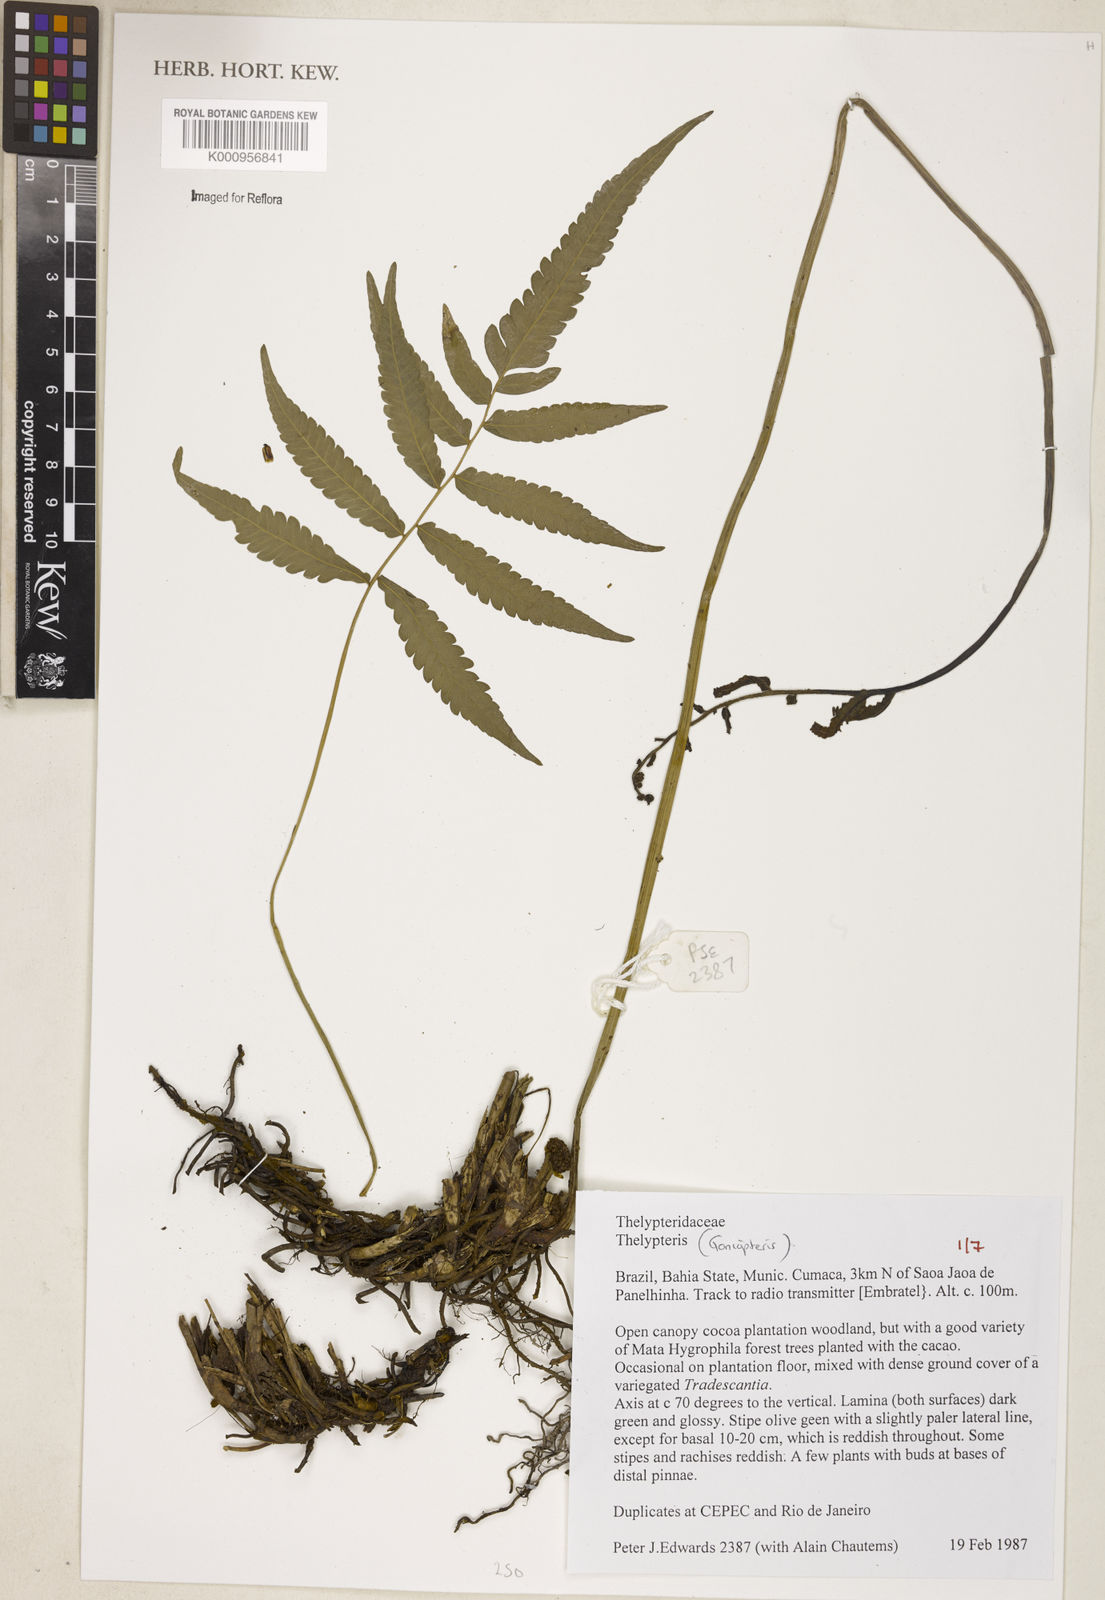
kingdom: Plantae
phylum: Tracheophyta
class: Polypodiopsida
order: Polypodiales
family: Thelypteridaceae
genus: Goniopteris
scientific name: Goniopteris
